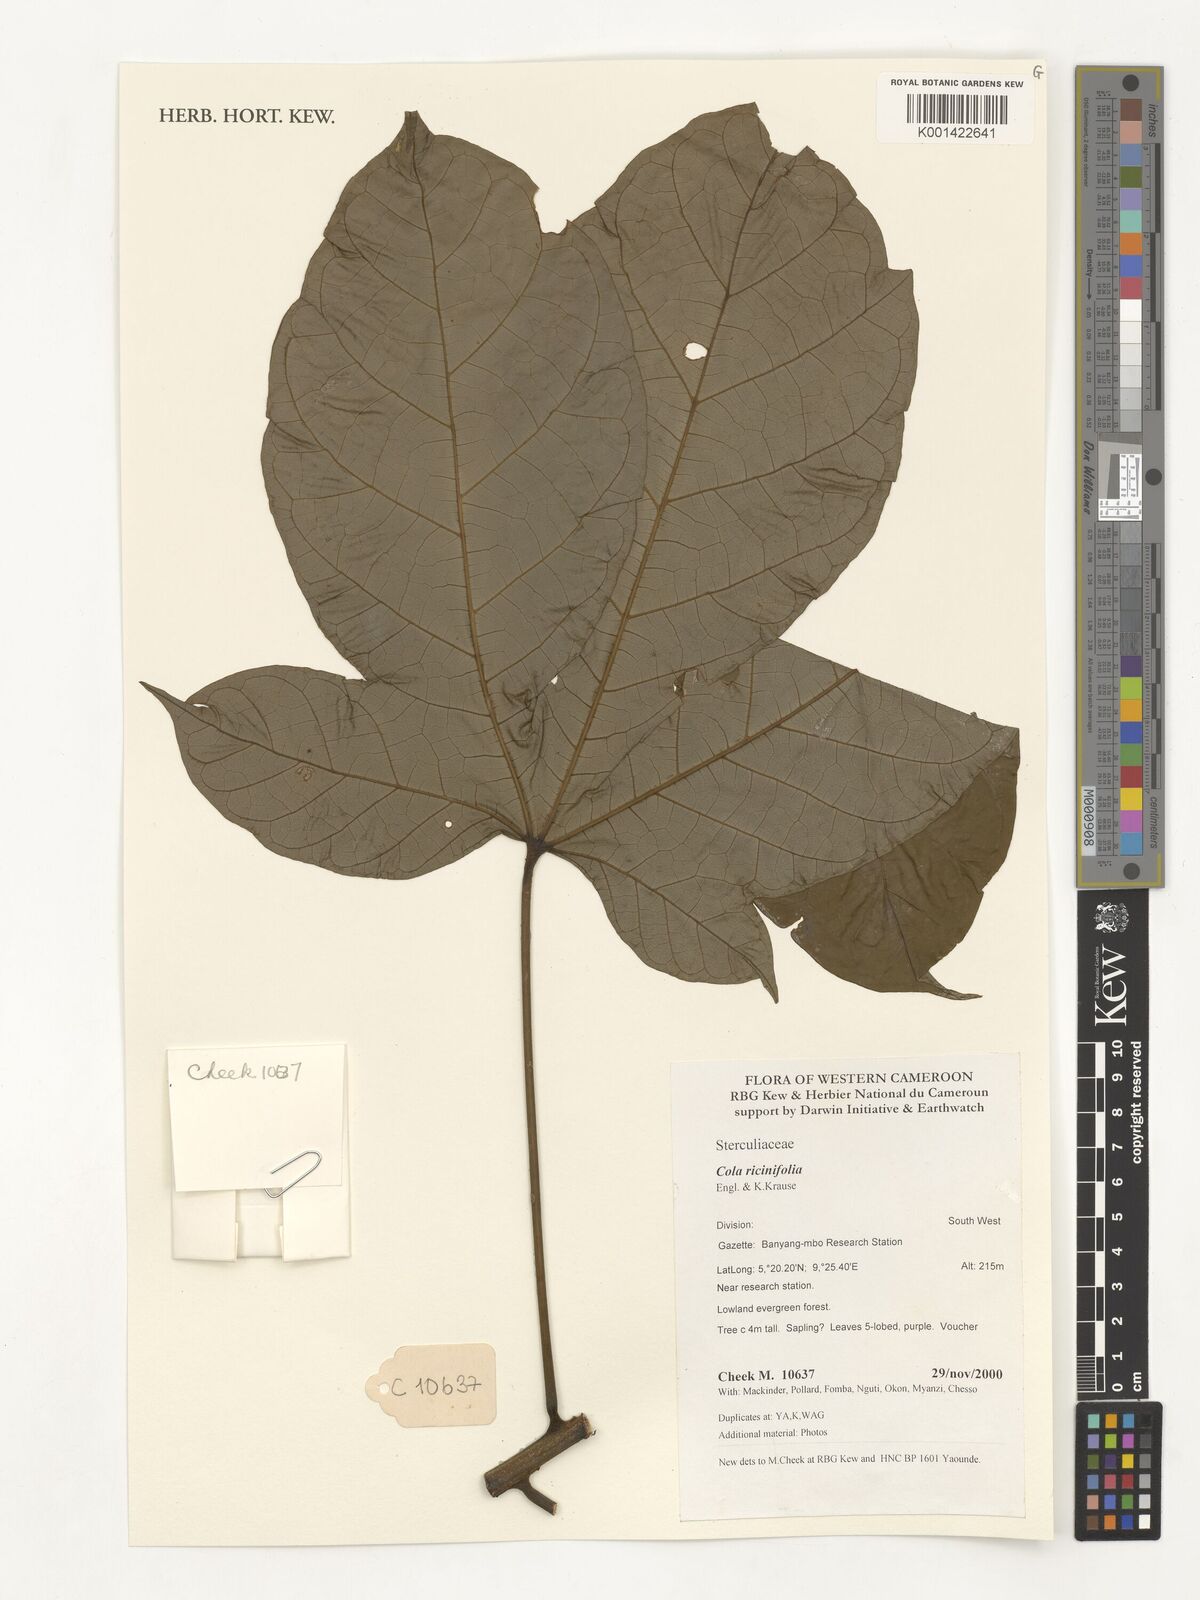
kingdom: Plantae
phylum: Tracheophyta
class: Magnoliopsida
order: Malvales
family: Malvaceae
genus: Cola
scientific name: Cola ricinifolia
